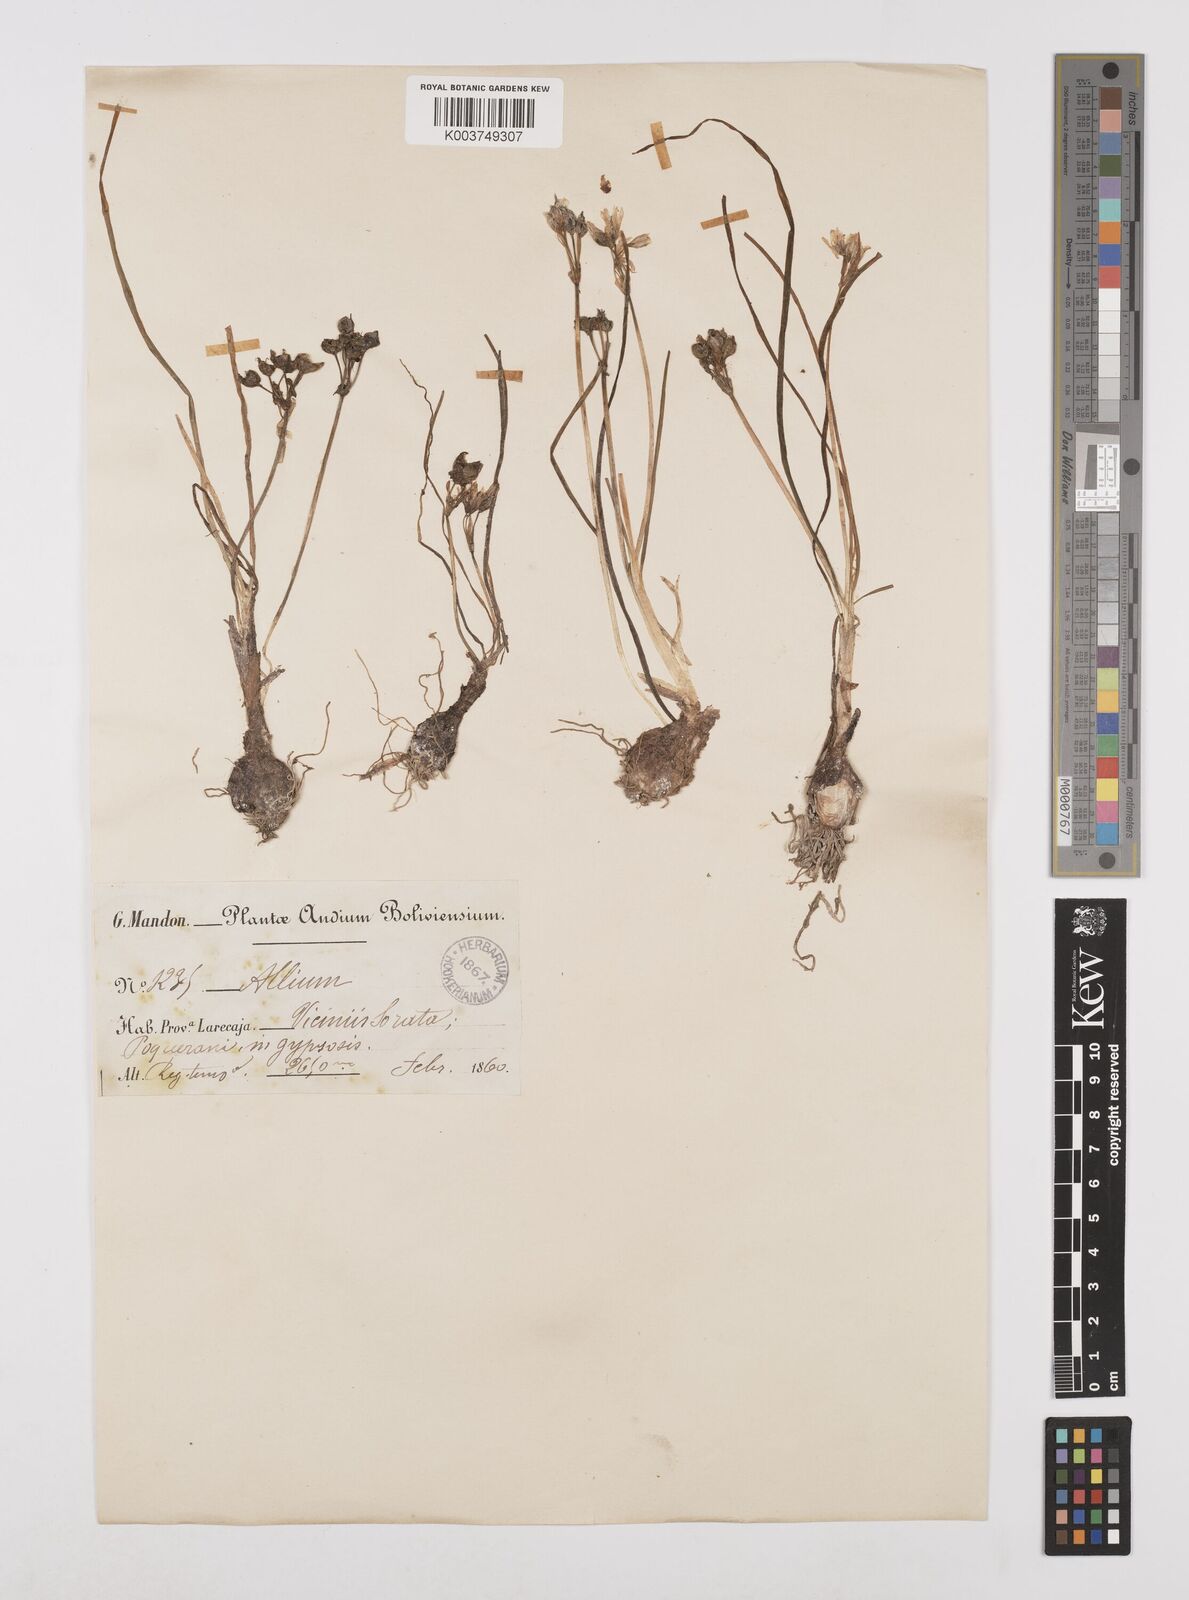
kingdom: Plantae
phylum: Tracheophyta
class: Liliopsida
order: Asparagales
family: Amaryllidaceae
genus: Nothoscordum
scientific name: Nothoscordum andicola
